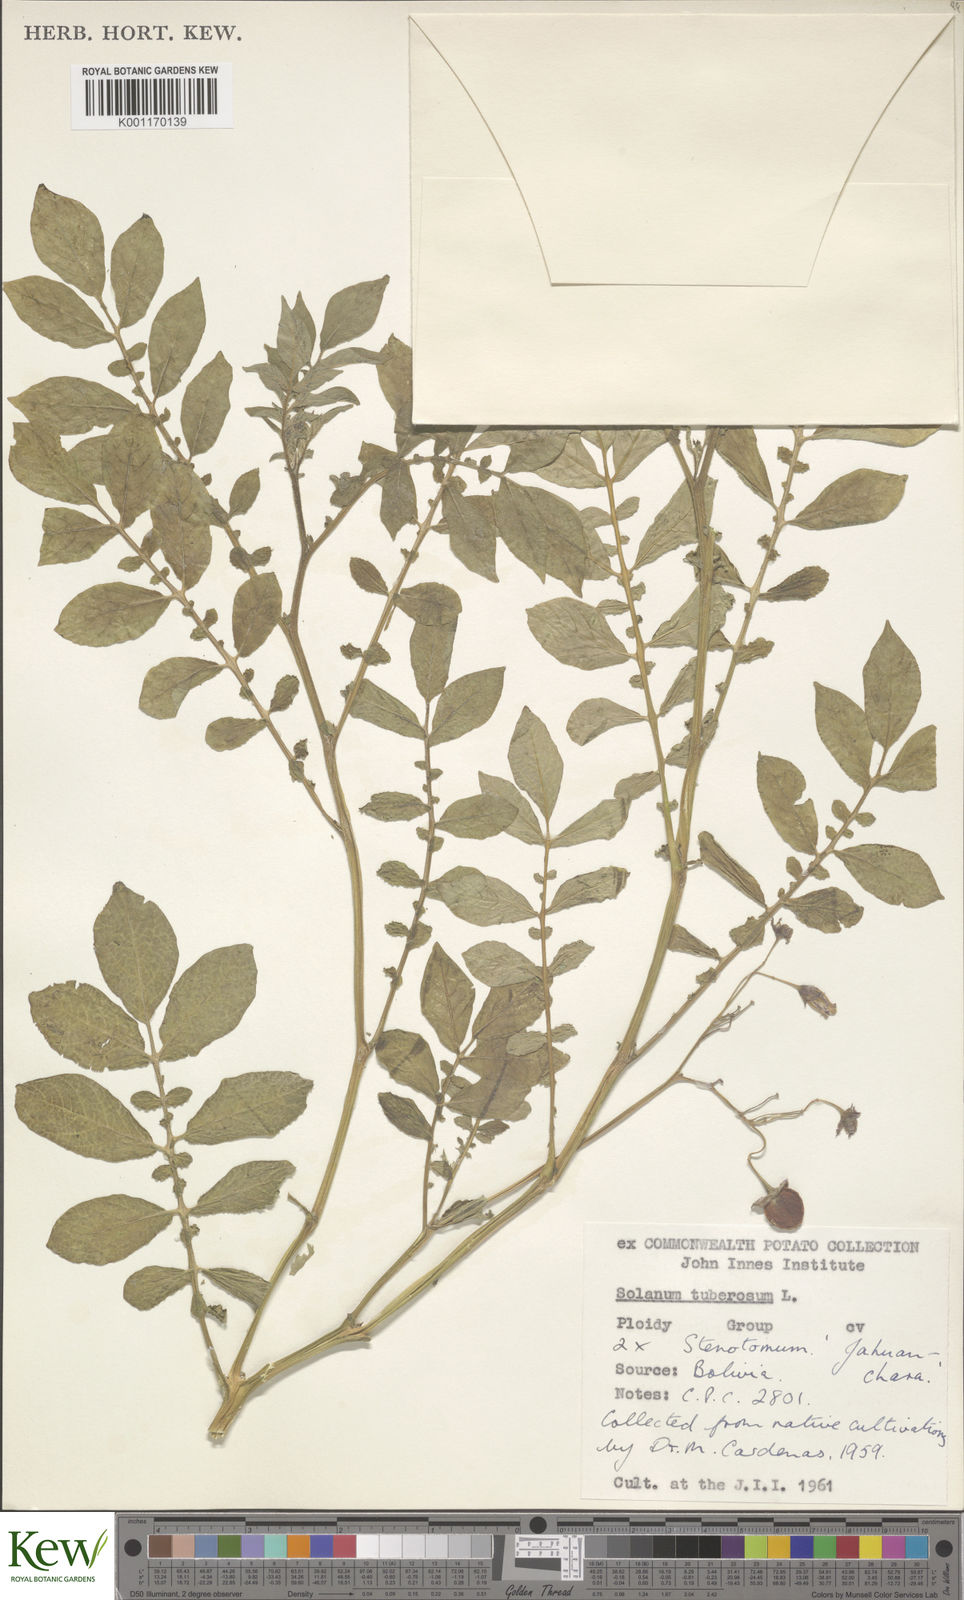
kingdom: Plantae
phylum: Tracheophyta
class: Magnoliopsida
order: Solanales
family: Solanaceae
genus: Solanum
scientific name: Solanum tuberosum
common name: Potato
